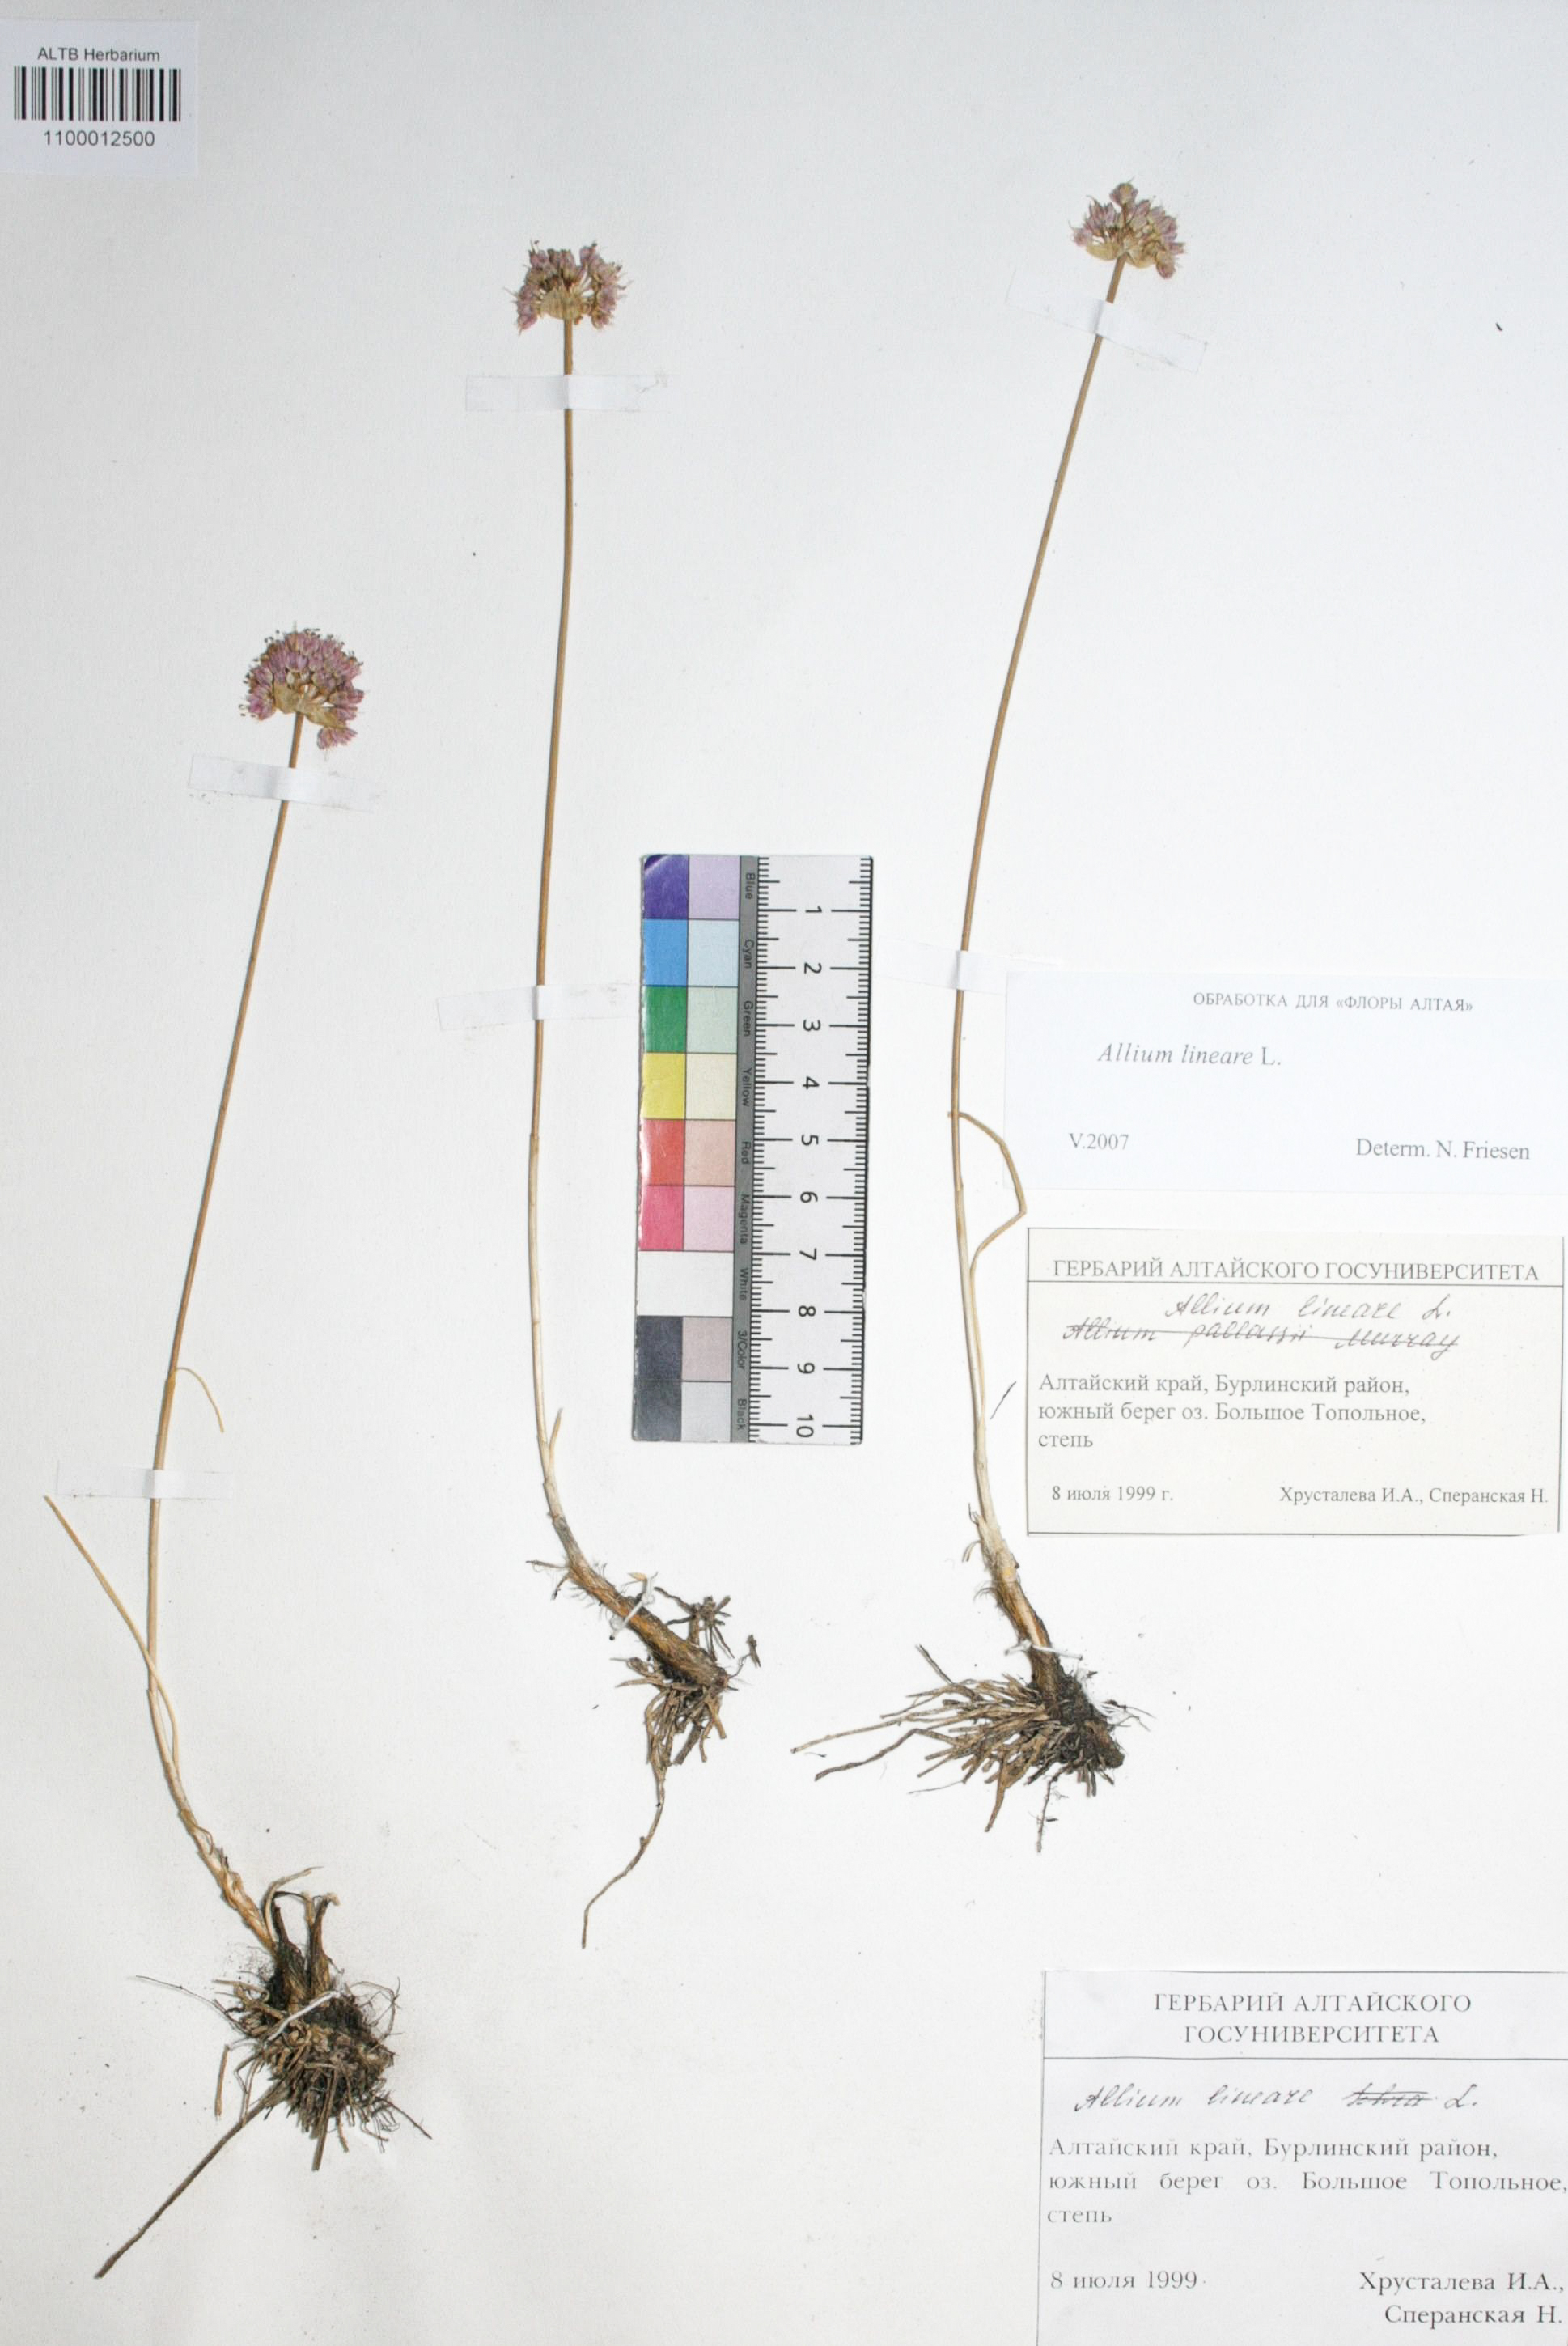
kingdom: Plantae
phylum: Tracheophyta
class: Liliopsida
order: Asparagales
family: Amaryllidaceae
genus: Allium
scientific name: Allium lineare
